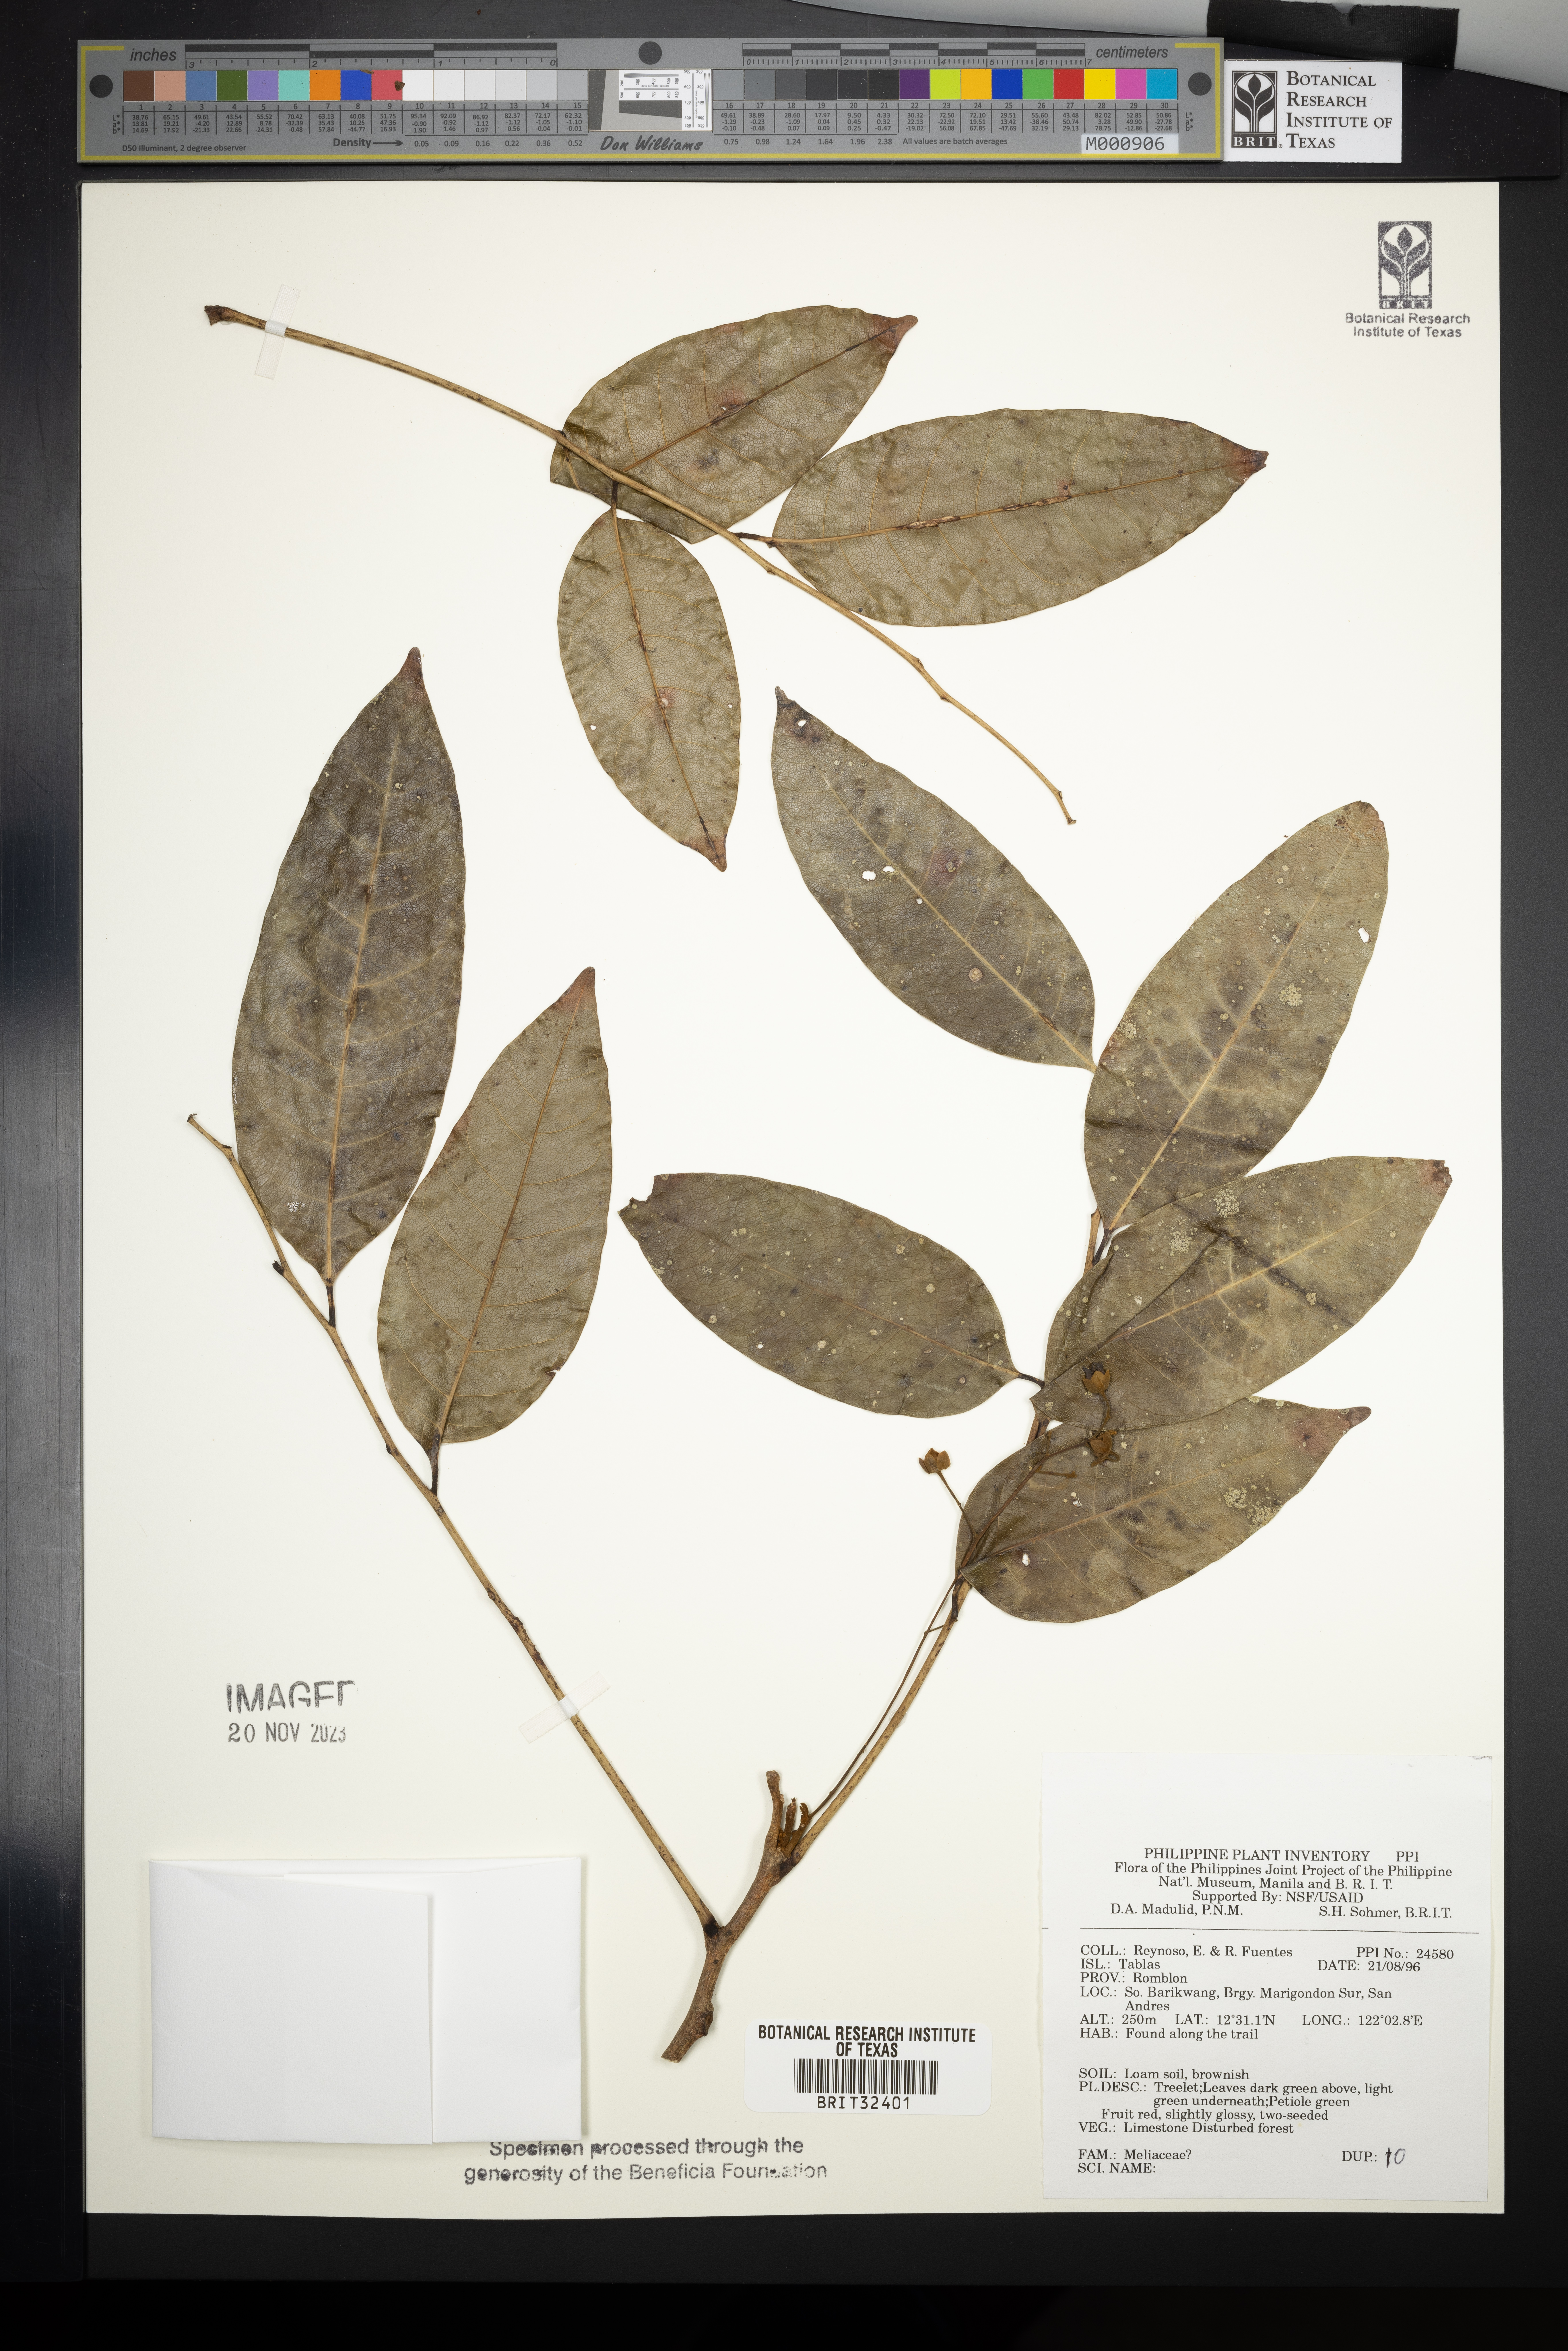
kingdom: Plantae
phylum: Tracheophyta
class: Magnoliopsida
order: Sapindales
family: Meliaceae
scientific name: Meliaceae
